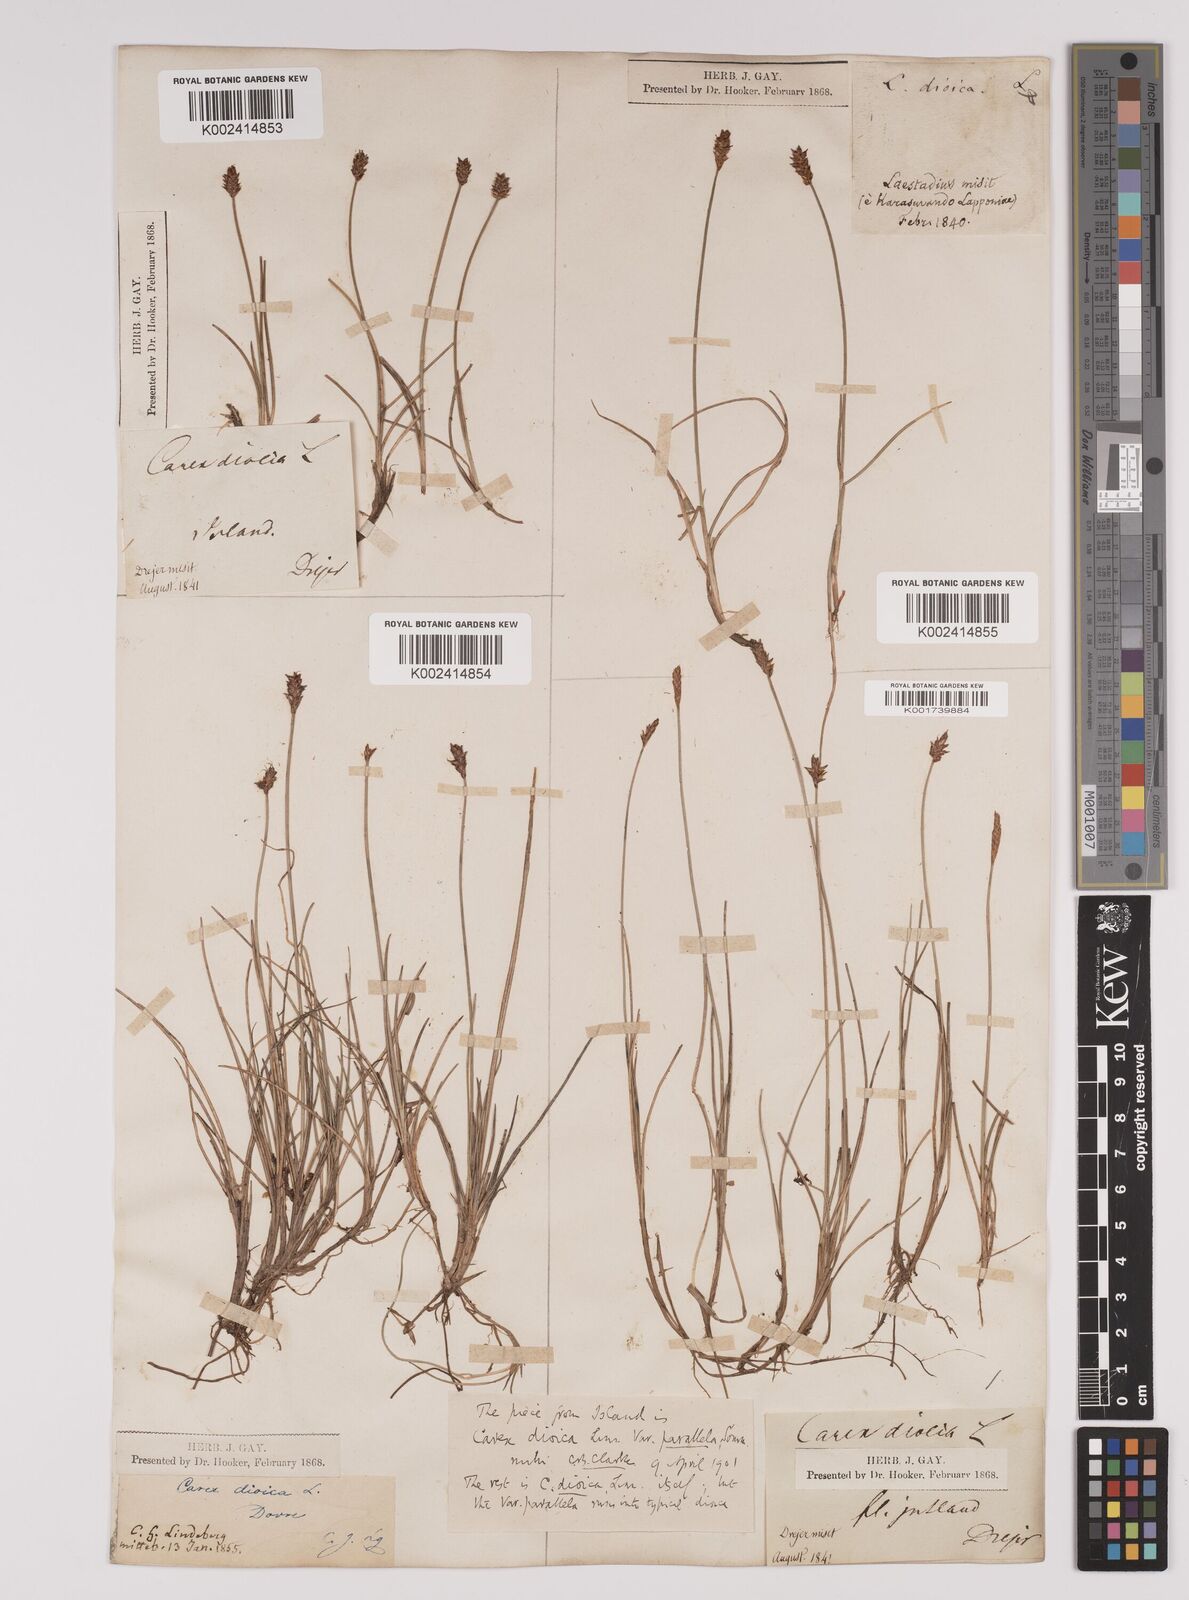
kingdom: Plantae
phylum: Tracheophyta
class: Liliopsida
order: Poales
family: Cyperaceae
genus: Carex
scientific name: Carex dioica
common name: Dioecious sedge
